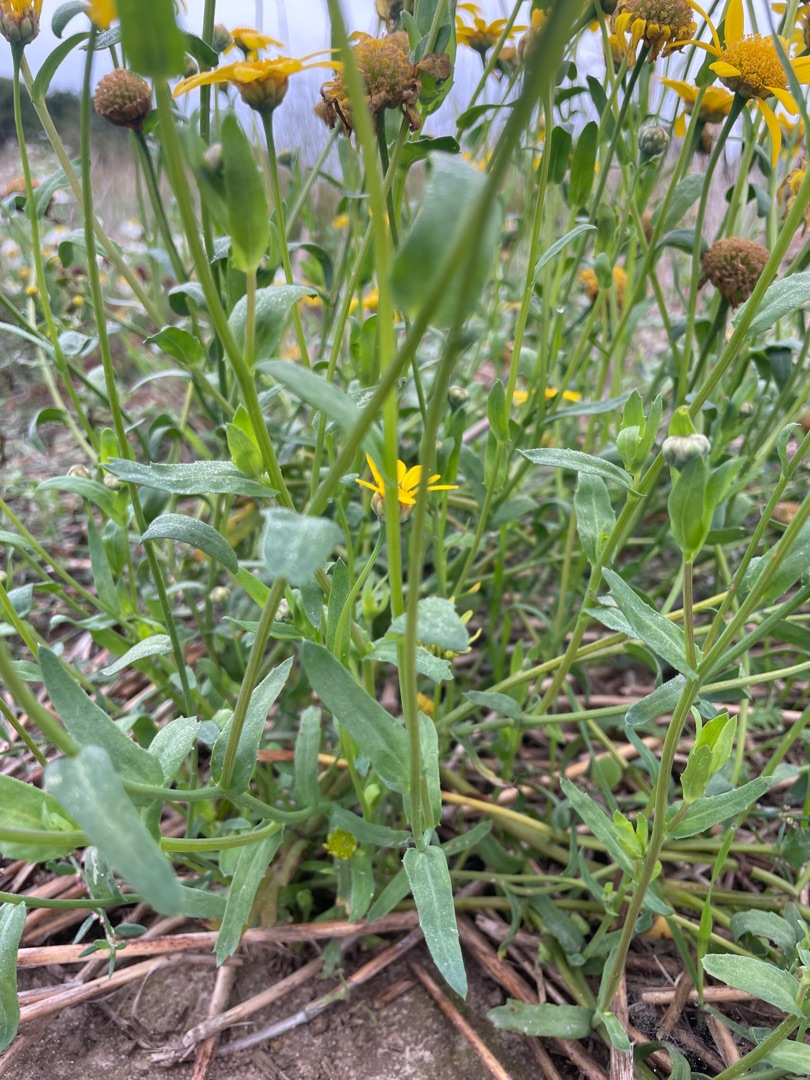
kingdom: Plantae
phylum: Tracheophyta
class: Magnoliopsida
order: Asterales
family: Asteraceae
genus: Glebionis
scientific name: Glebionis segetum
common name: Gul okseøje
